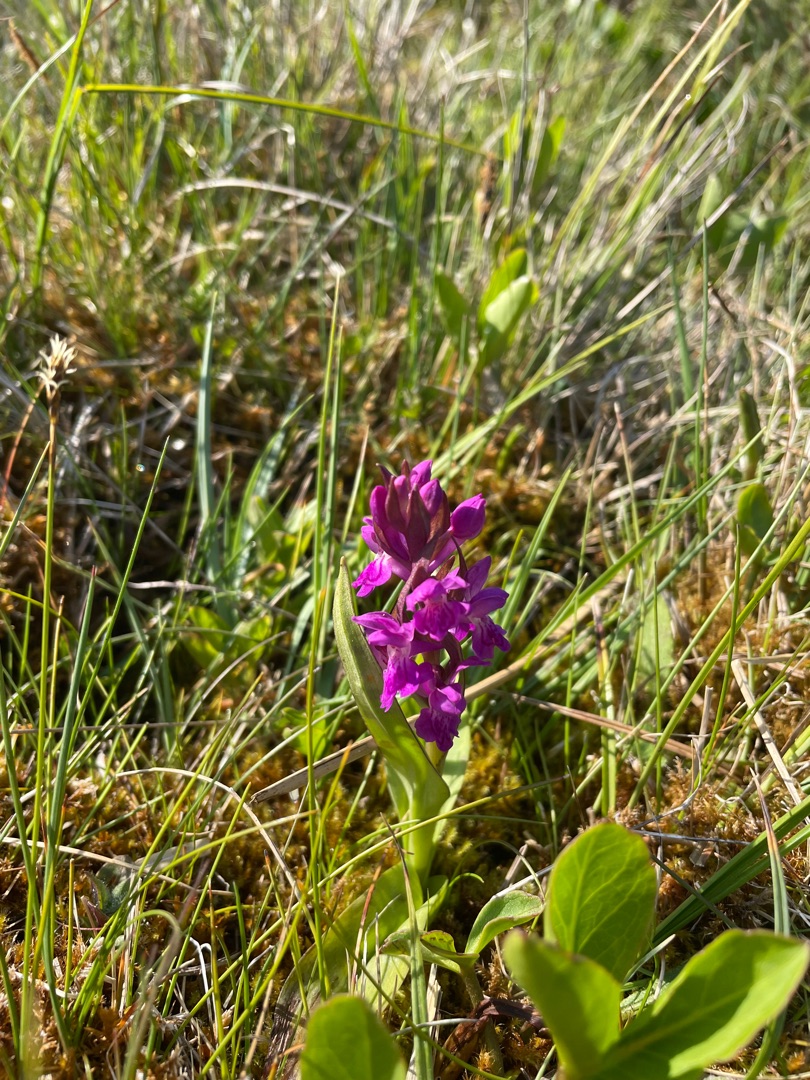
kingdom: Plantae
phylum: Tracheophyta
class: Liliopsida
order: Asparagales
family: Orchidaceae
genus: Dactylorhiza
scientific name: Dactylorhiza majalis
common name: Maj-gøgeurt
